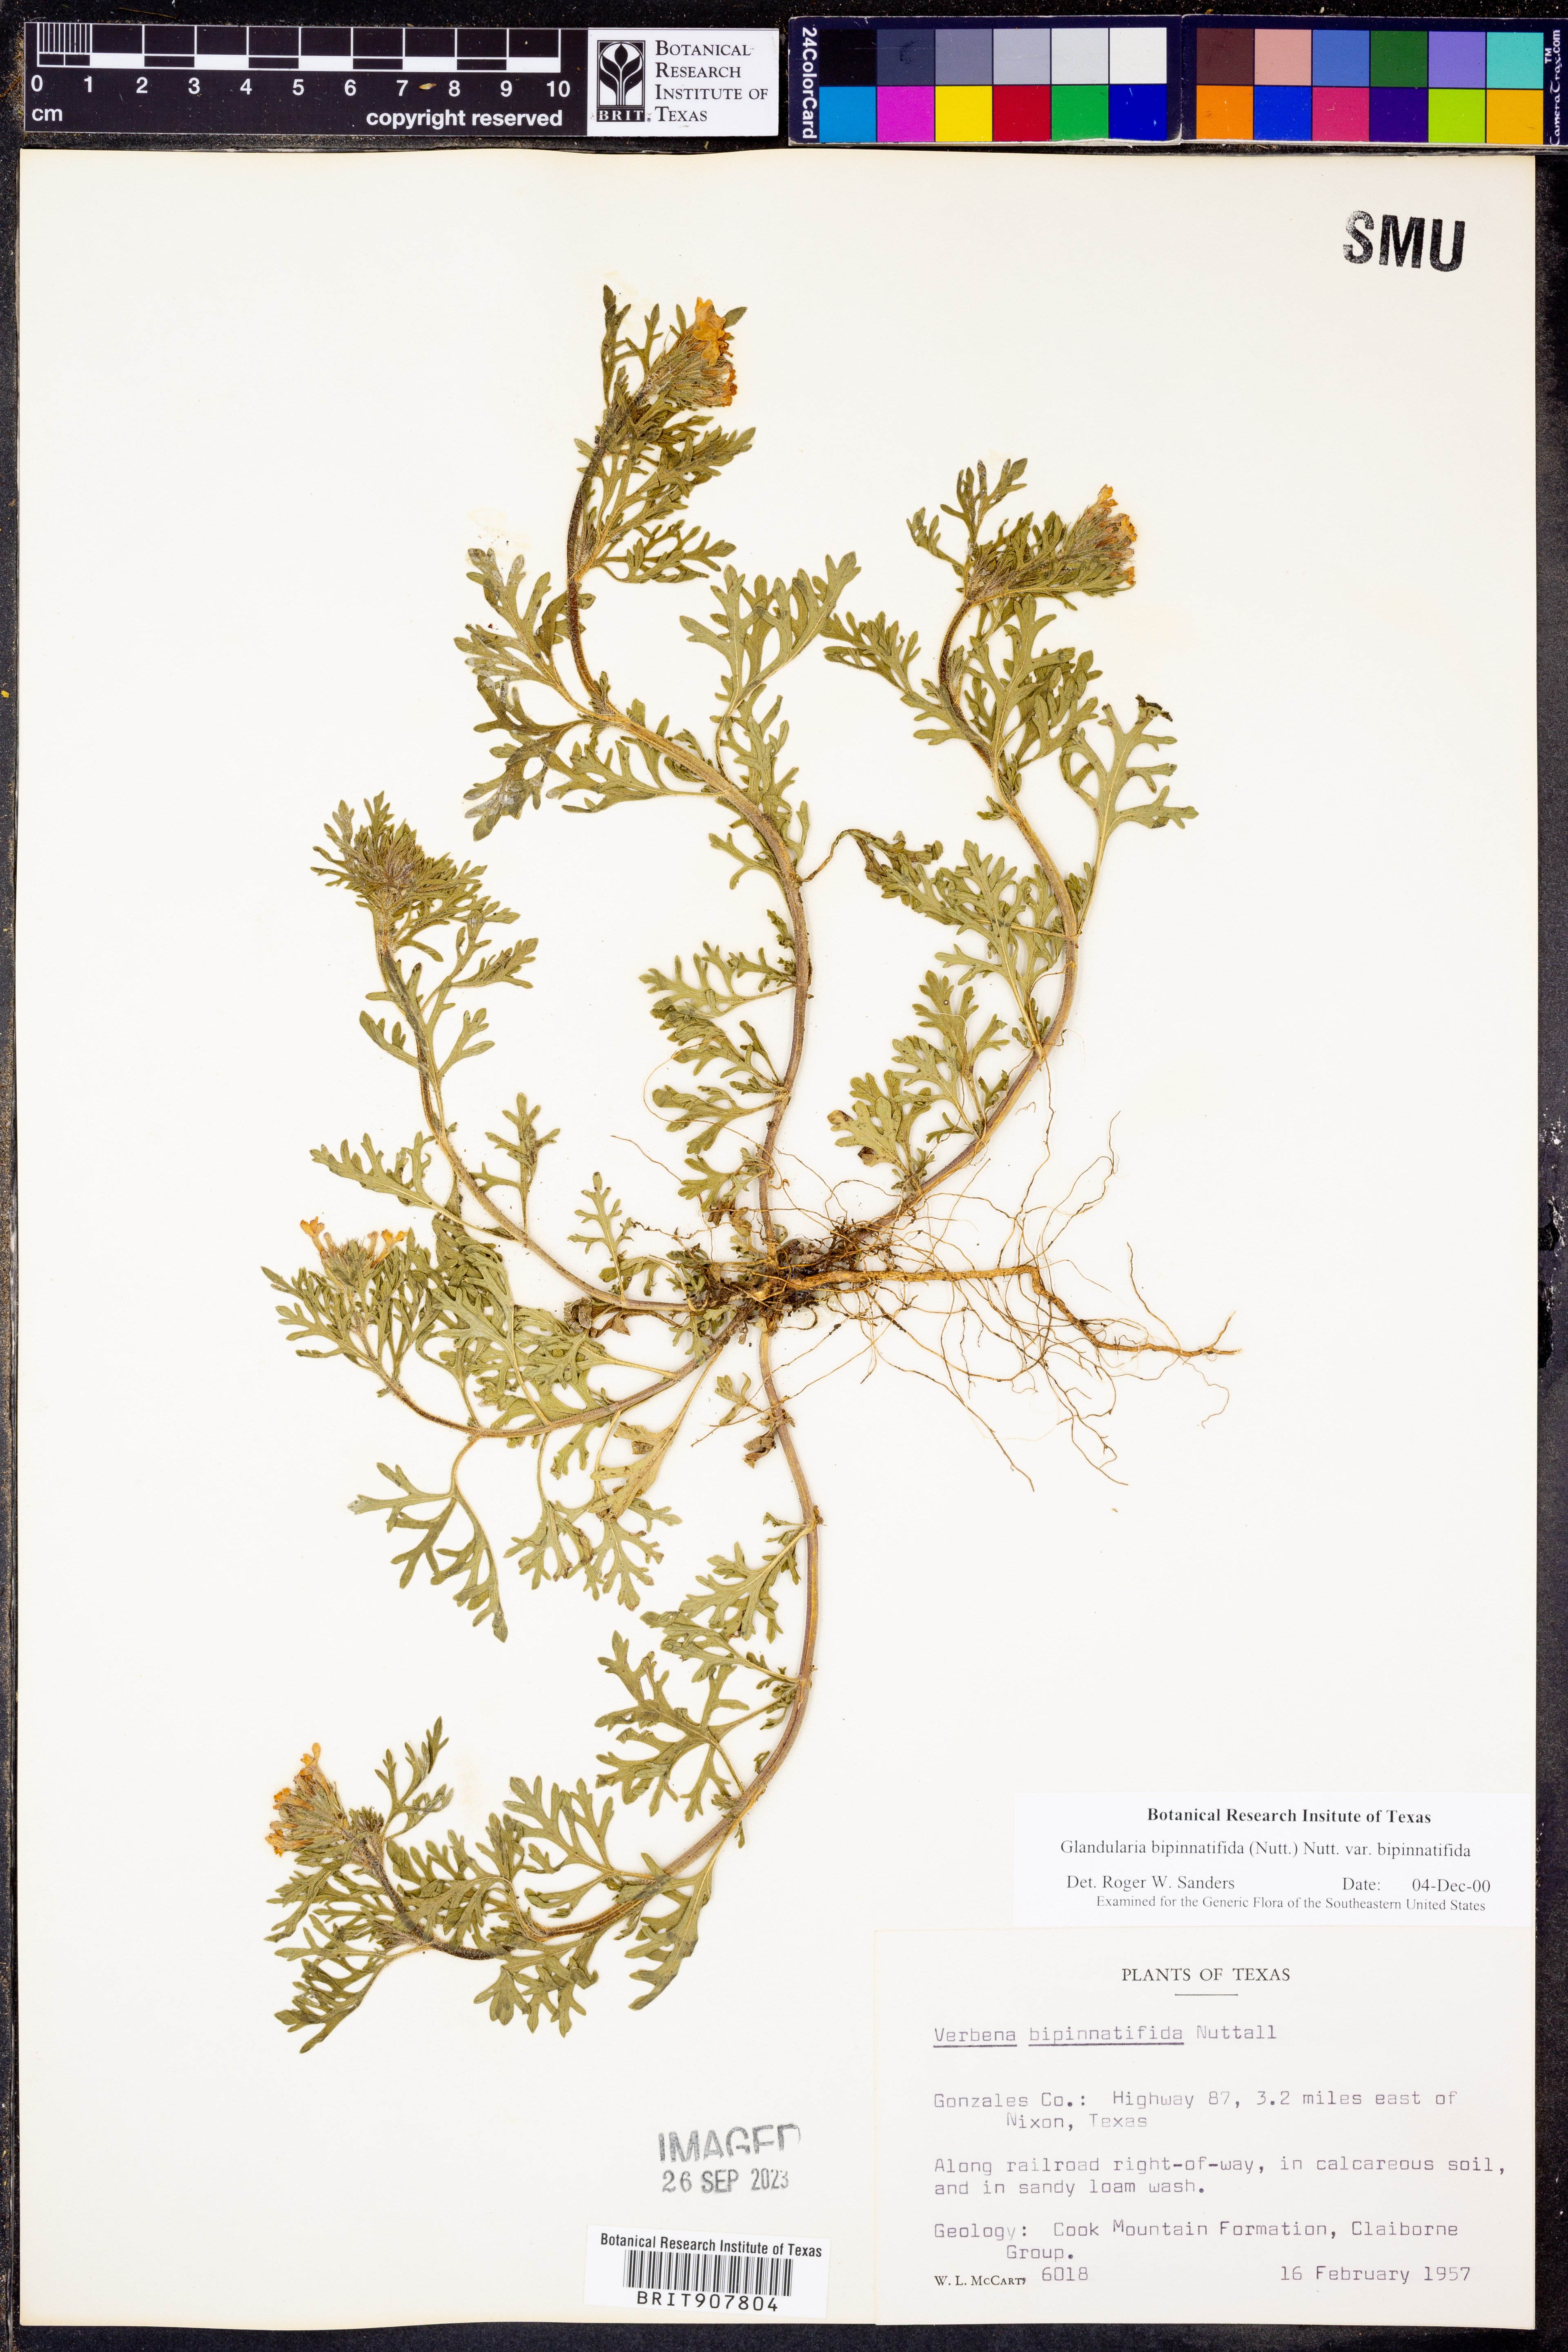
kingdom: Plantae
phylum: Tracheophyta
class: Magnoliopsida
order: Lamiales
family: Verbenaceae
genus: Verbena
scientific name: Verbena bipinnatifida
